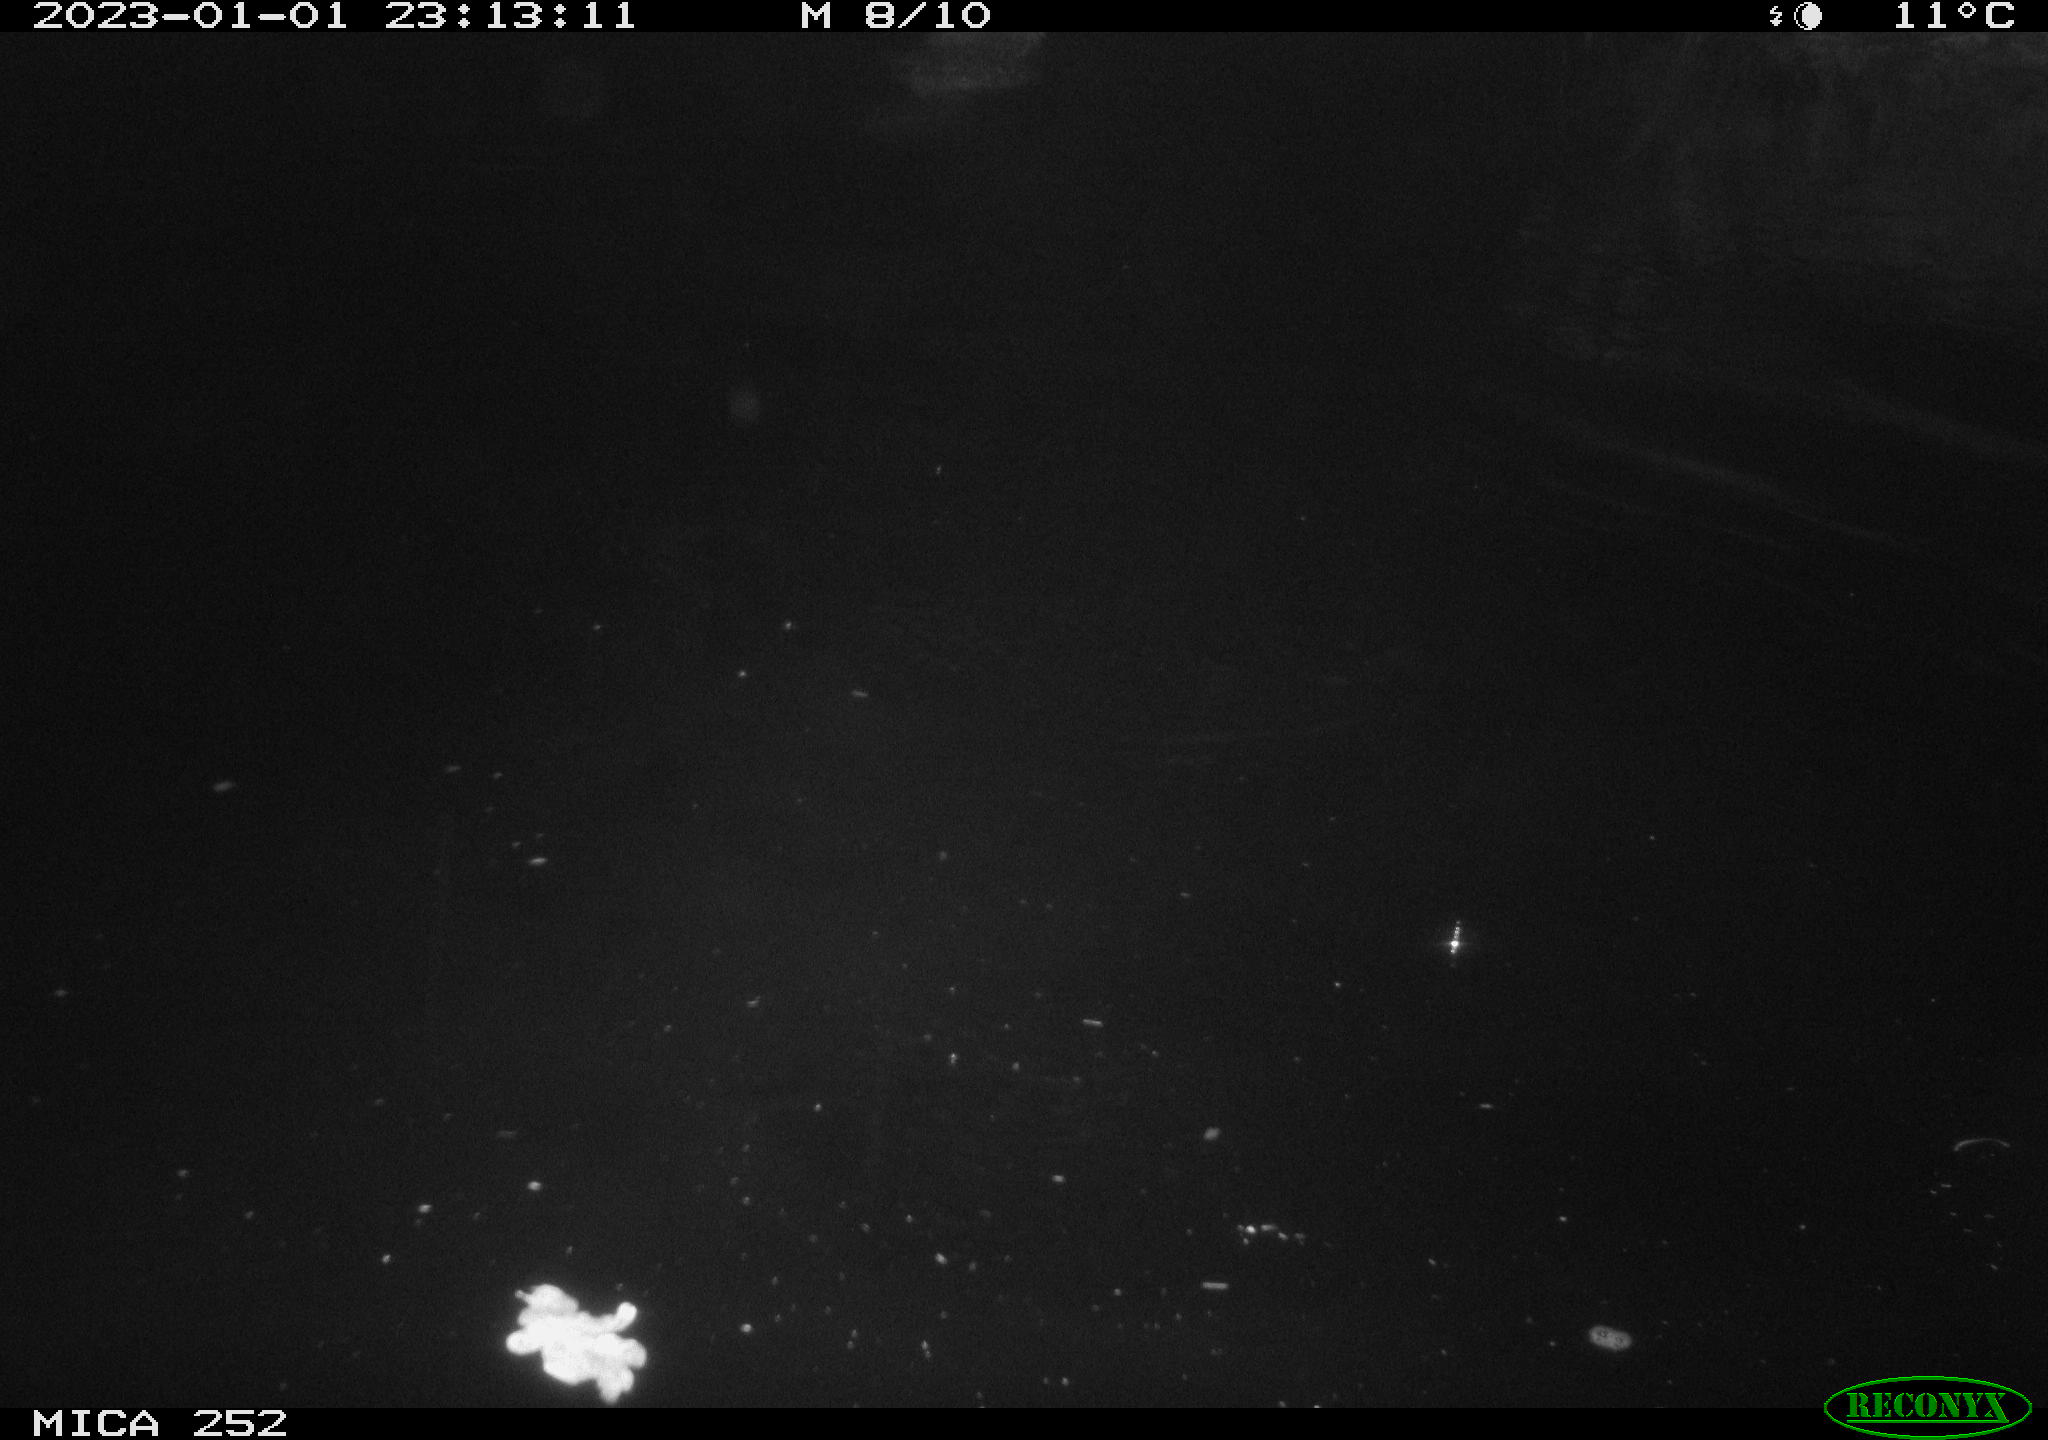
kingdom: Animalia
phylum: Chordata
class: Mammalia
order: Rodentia
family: Castoridae
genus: Castor
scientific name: Castor fiber
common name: Eurasian beaver
